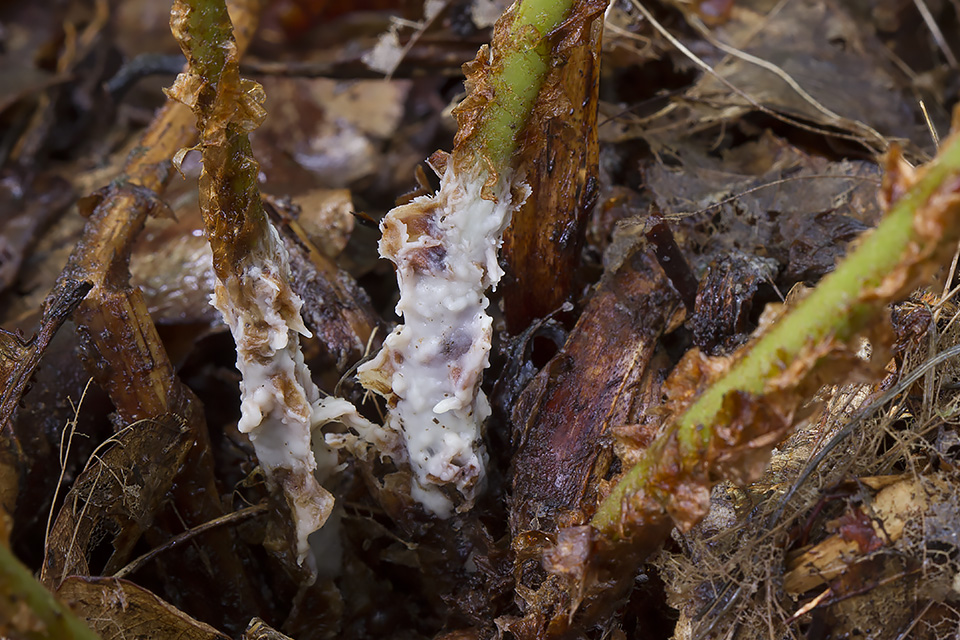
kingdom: Fungi
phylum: Basidiomycota
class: Agaricomycetes
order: Sebacinales
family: Sebacinaceae
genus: Sebacina
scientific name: Sebacina incrustans
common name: krybende bævretalg
